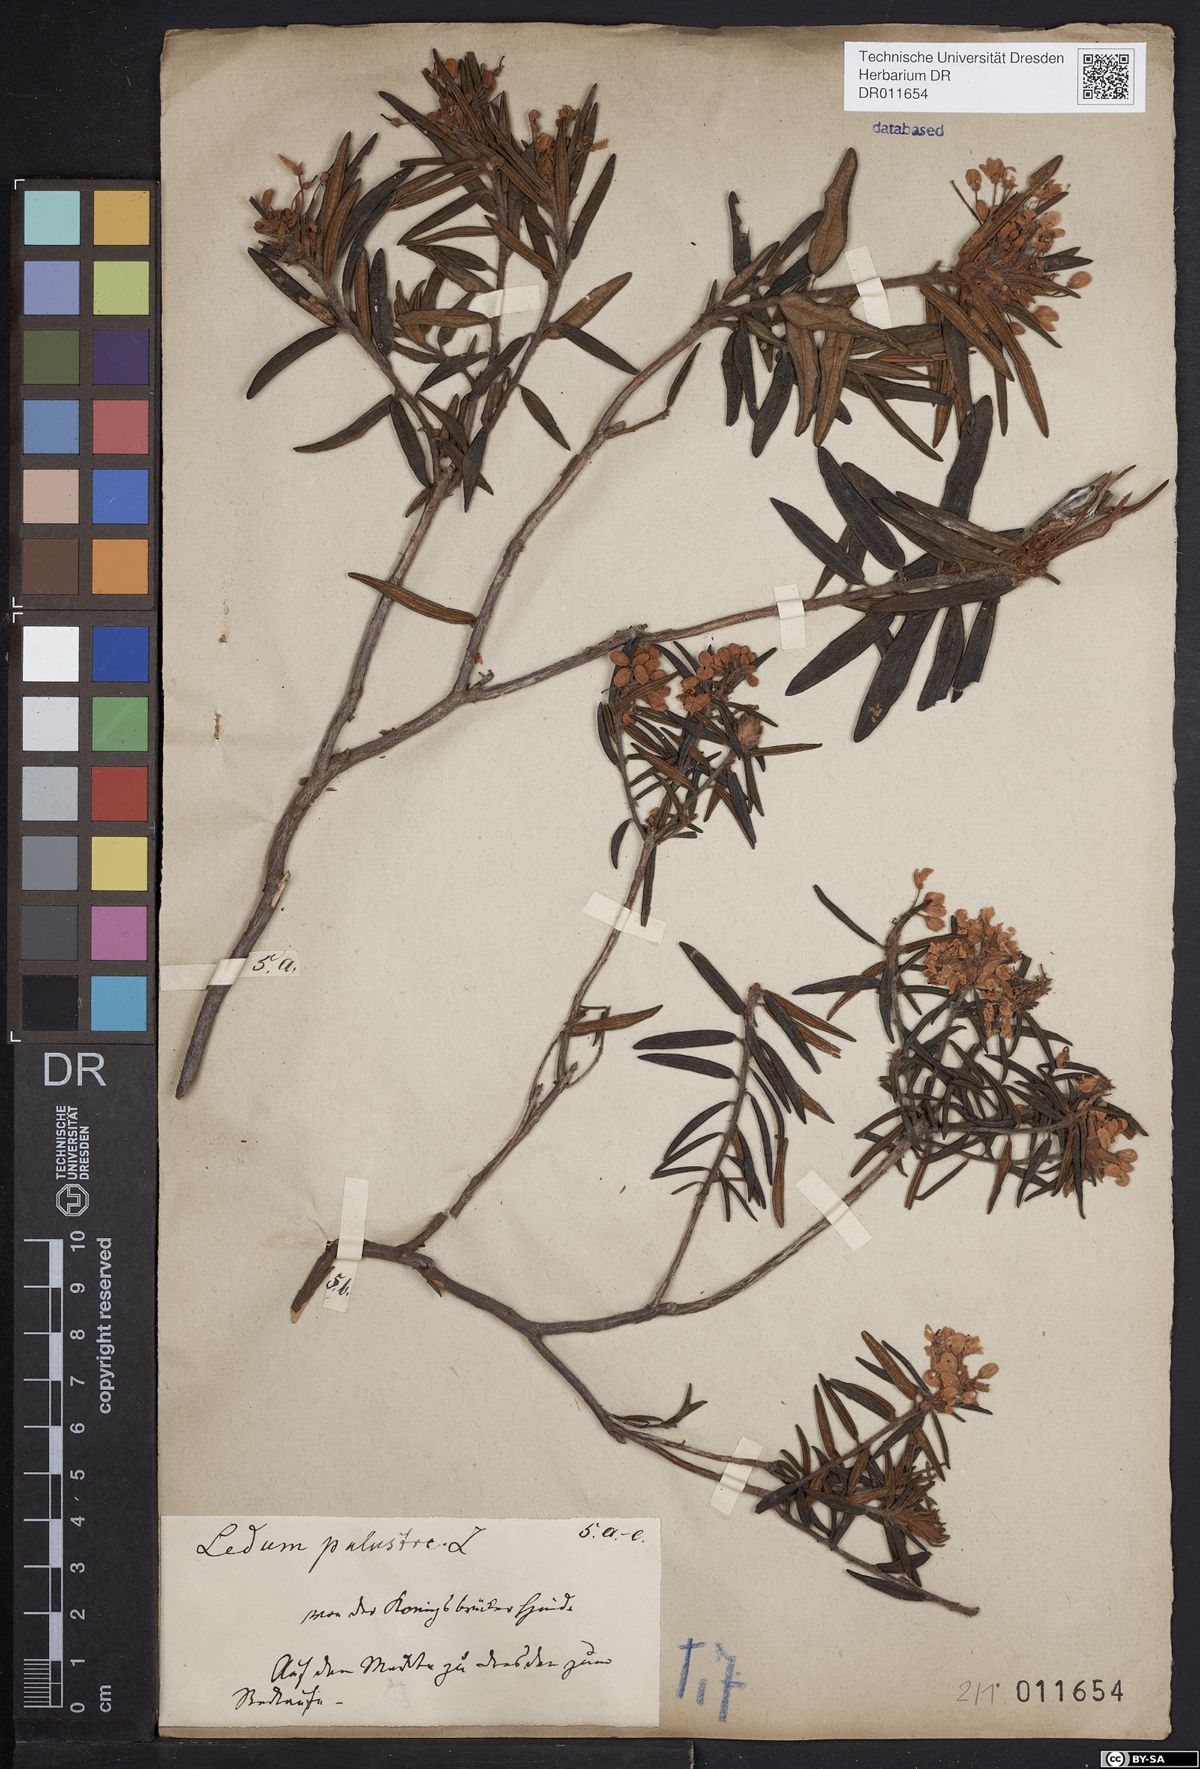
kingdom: Plantae
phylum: Tracheophyta
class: Magnoliopsida
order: Ericales
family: Ericaceae
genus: Rhododendron
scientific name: Rhododendron tomentosum
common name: Marsh labrador tea
